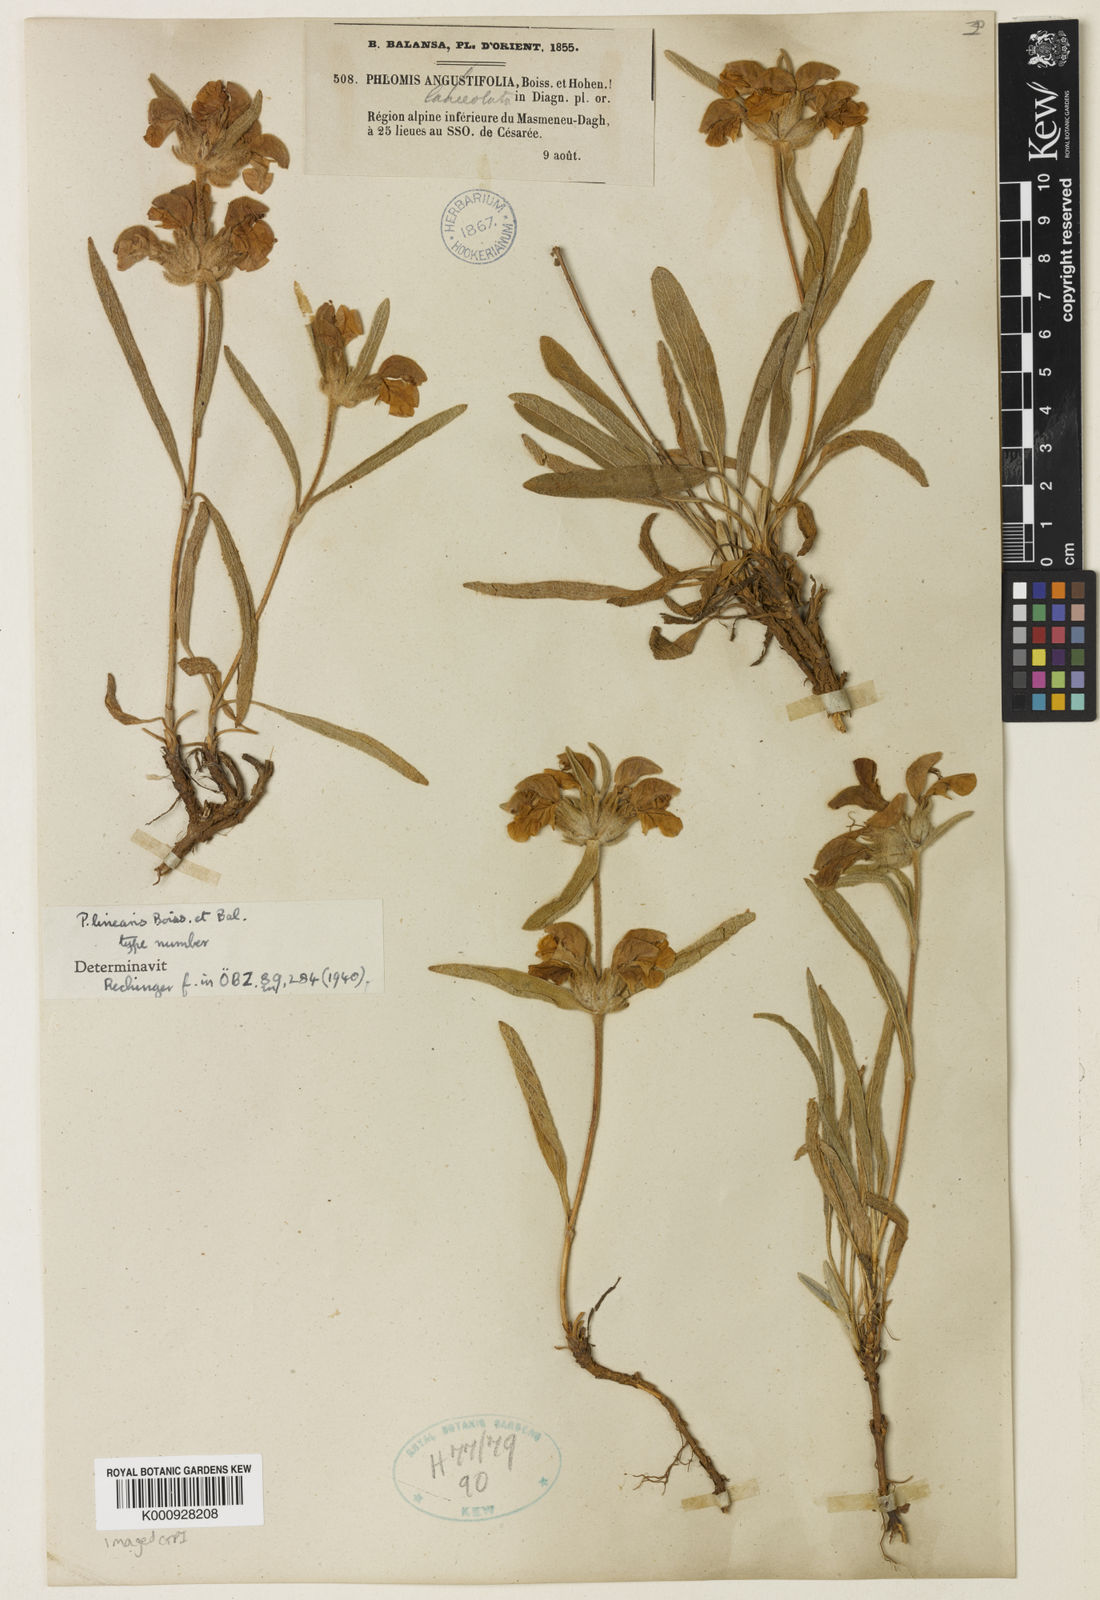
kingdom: Plantae
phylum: Tracheophyta
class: Magnoliopsida
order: Lamiales
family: Lamiaceae
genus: Phlomis
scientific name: Phlomis linearis
